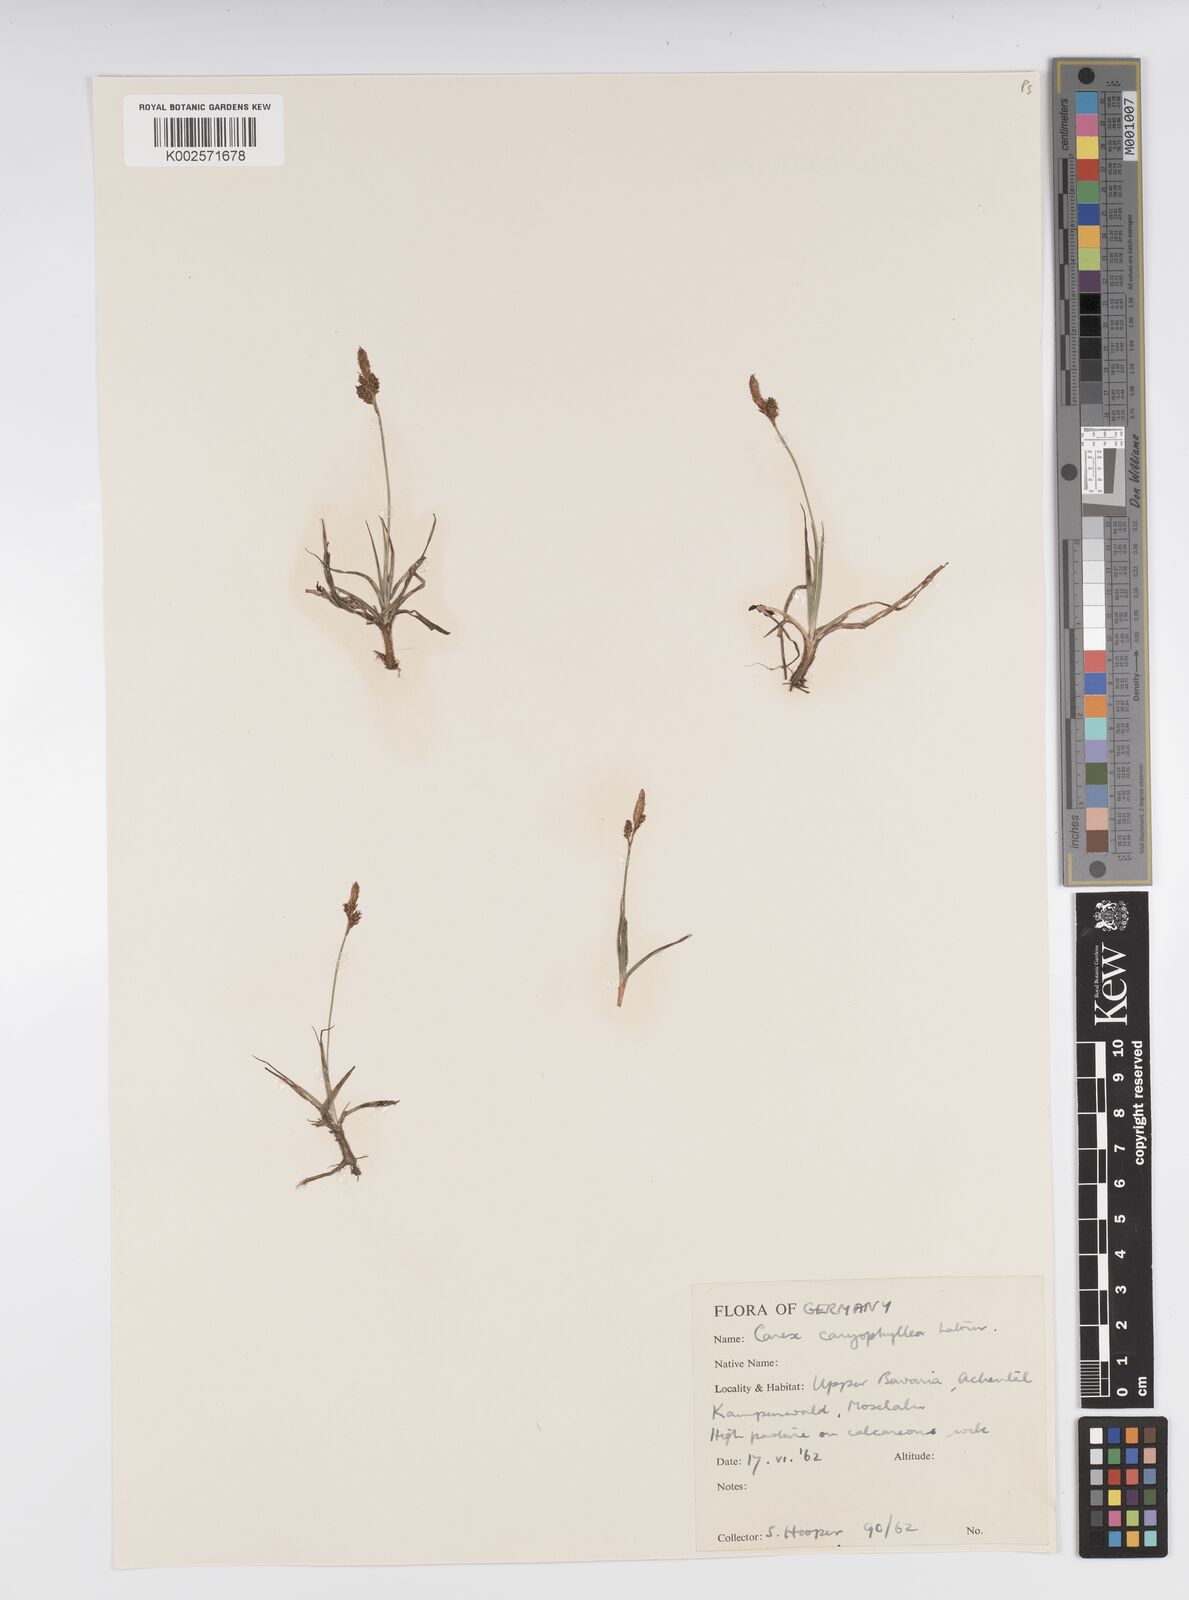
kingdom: Plantae
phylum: Tracheophyta
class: Liliopsida
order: Poales
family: Cyperaceae
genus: Carex
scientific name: Carex caryophyllea
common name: Spring sedge
